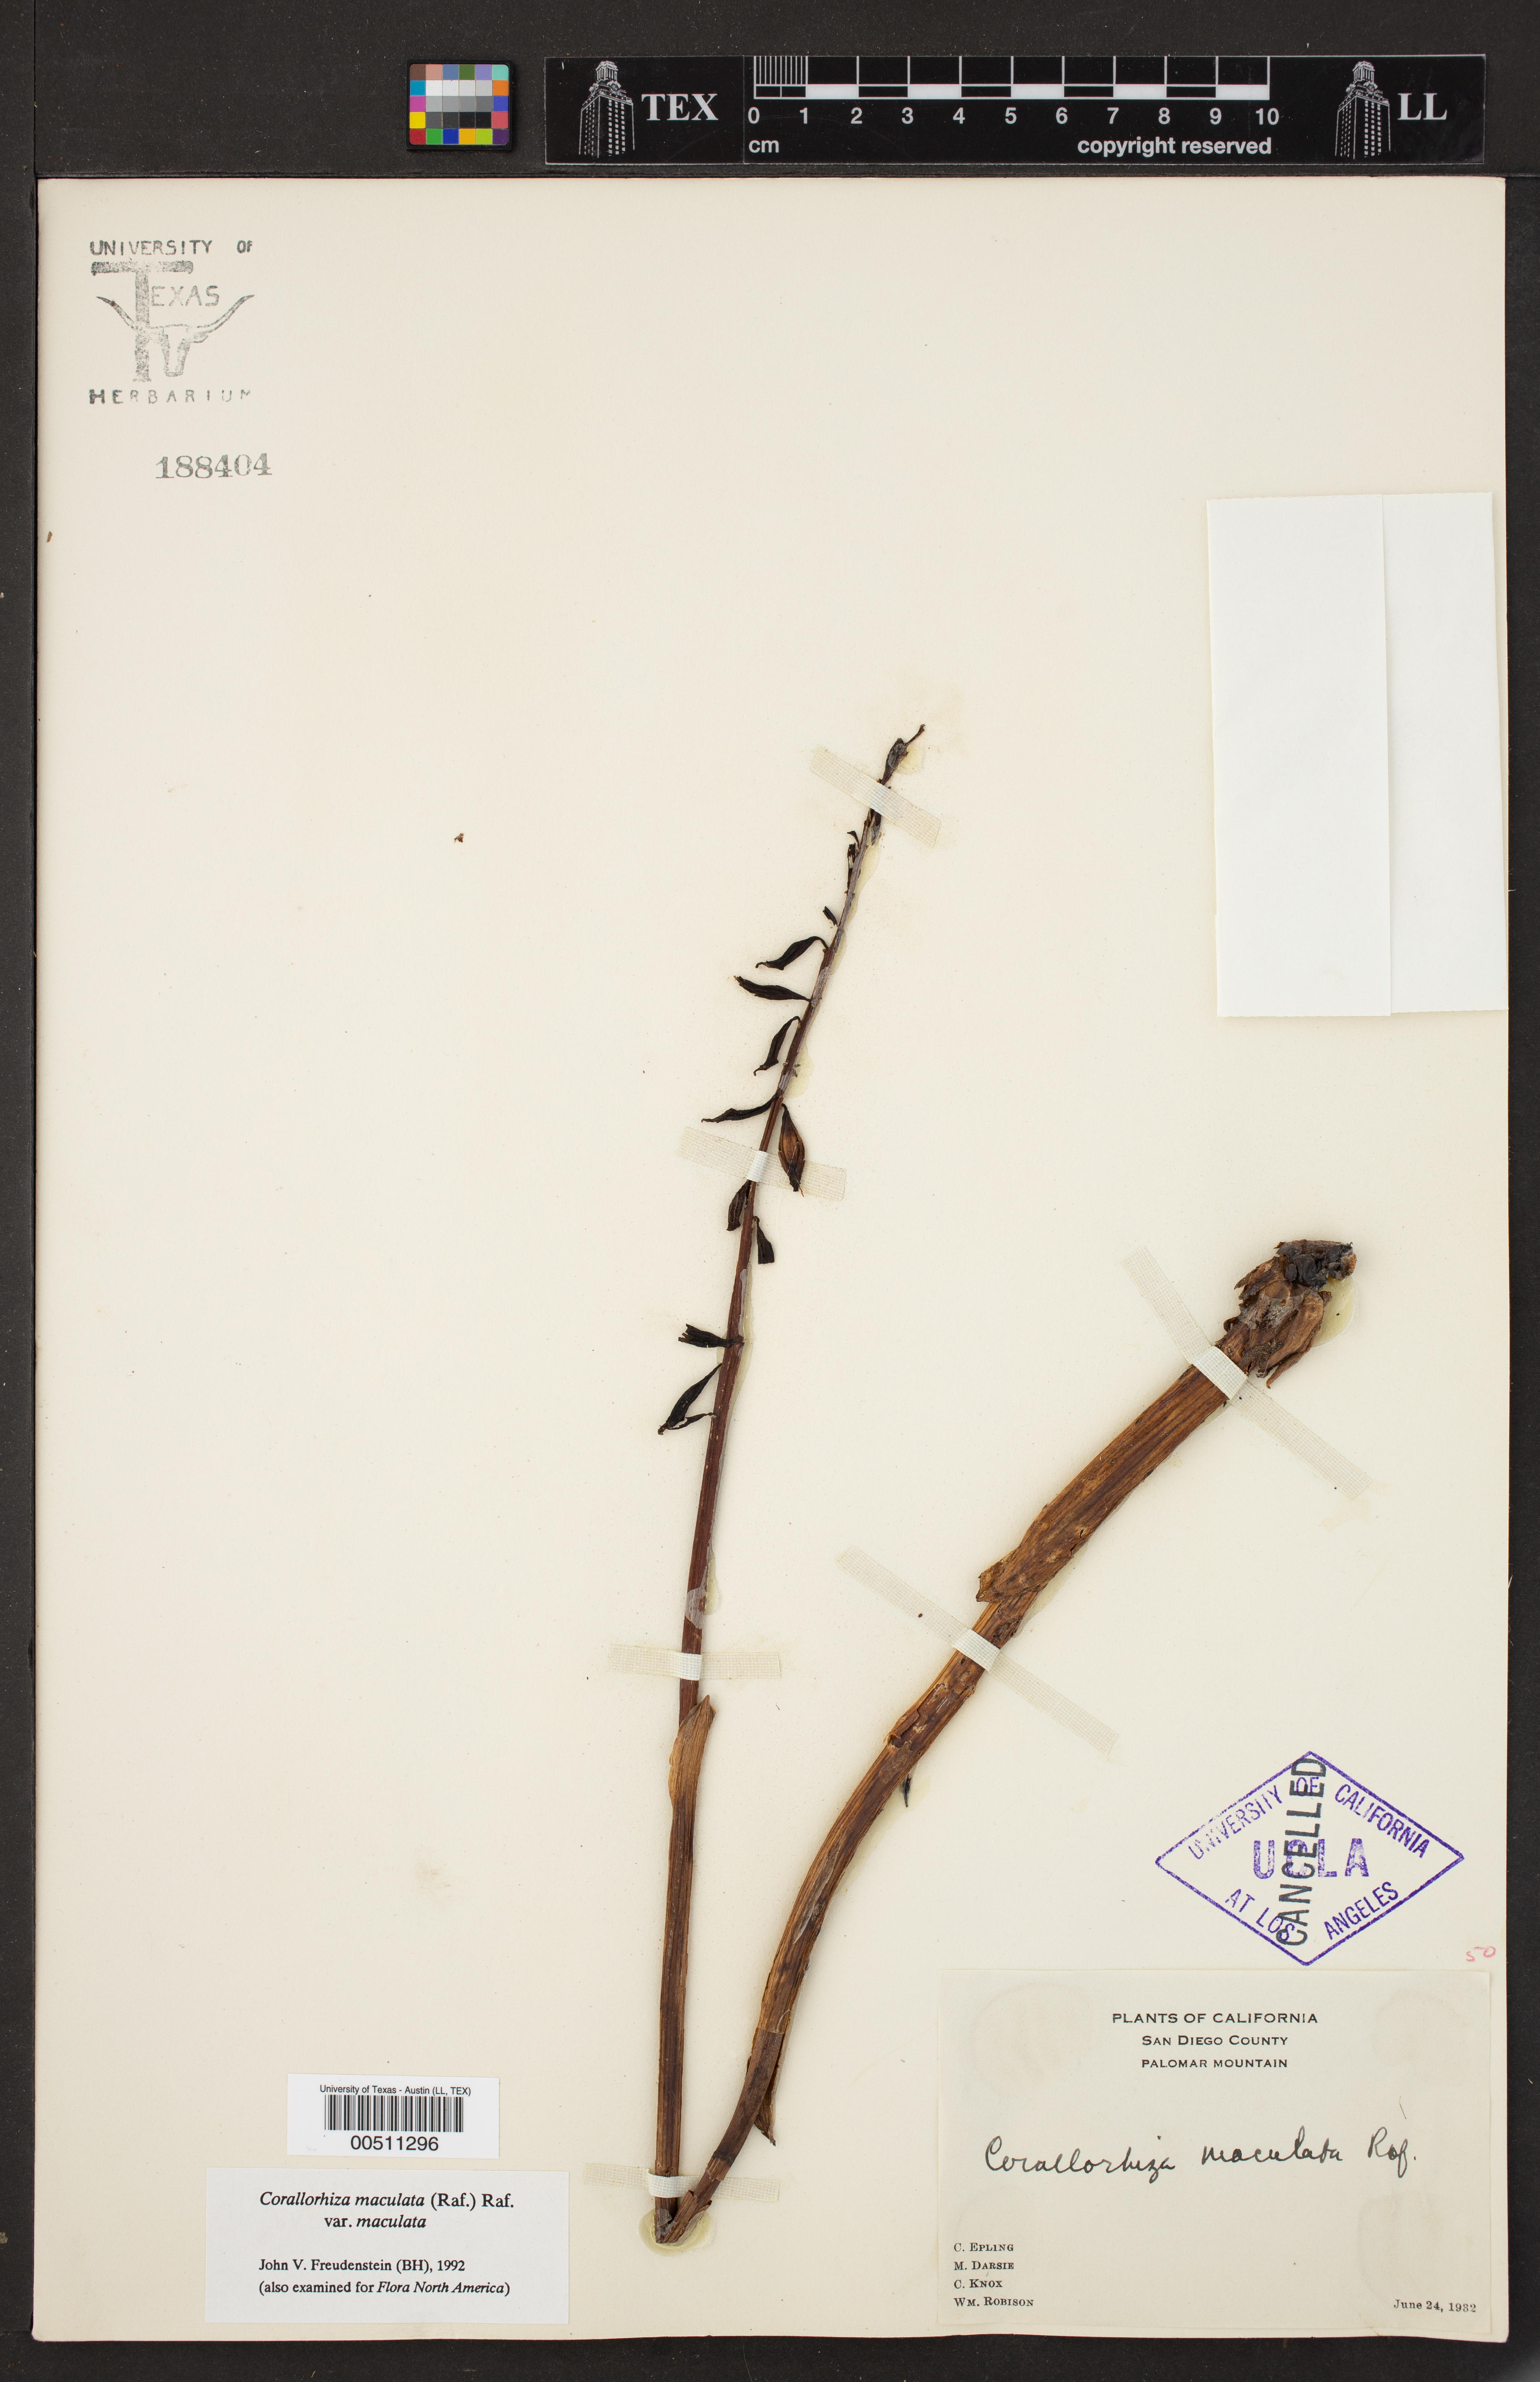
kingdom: Plantae
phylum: Tracheophyta
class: Liliopsida
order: Asparagales
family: Orchidaceae
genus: Corallorhiza
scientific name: Corallorhiza maculata
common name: Spotted coralroot
